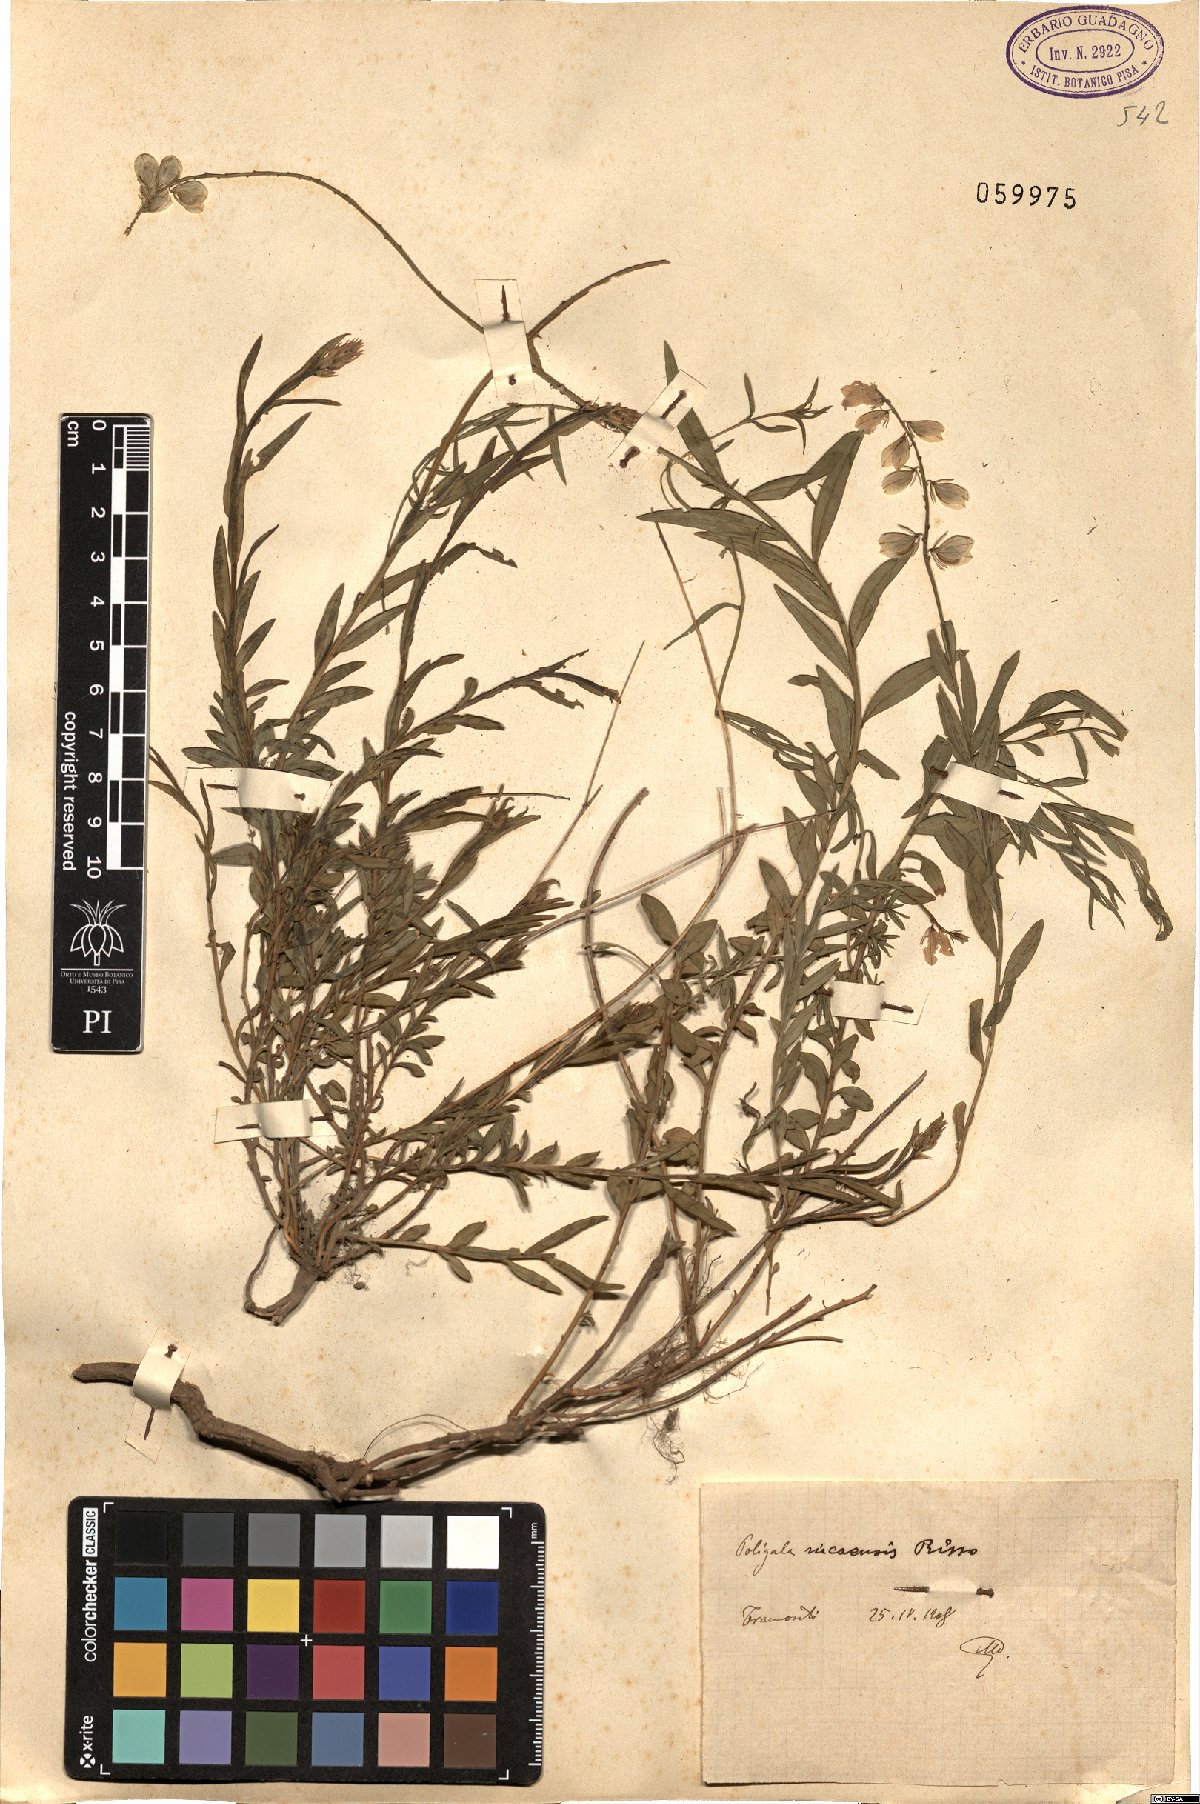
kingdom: Plantae
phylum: Tracheophyta
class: Magnoliopsida
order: Fabales
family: Polygalaceae
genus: Polygala
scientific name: Polygala nicaeensis
